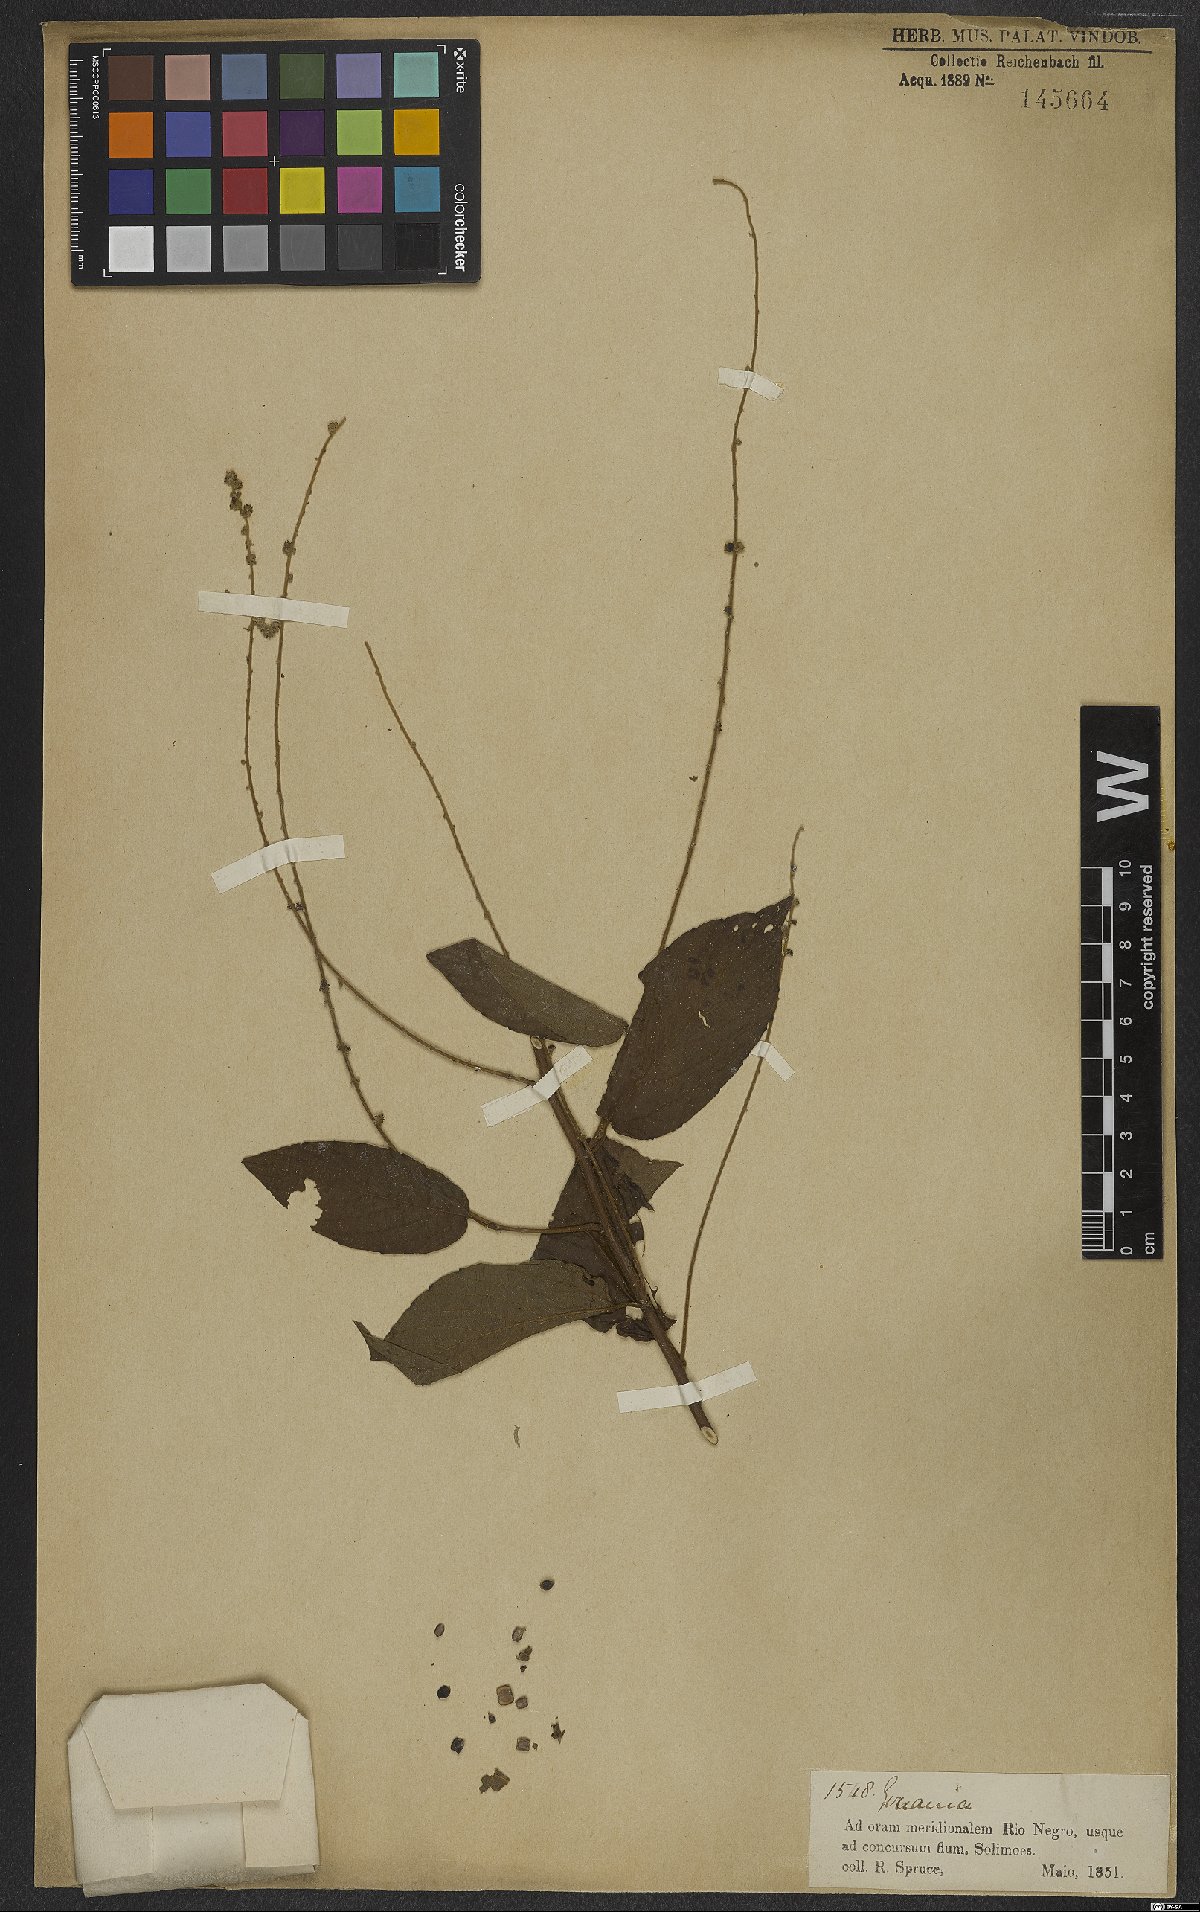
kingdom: Plantae
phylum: Tracheophyta
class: Magnoliopsida
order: Rosales
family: Rhamnaceae
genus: Gouania
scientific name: Gouania
